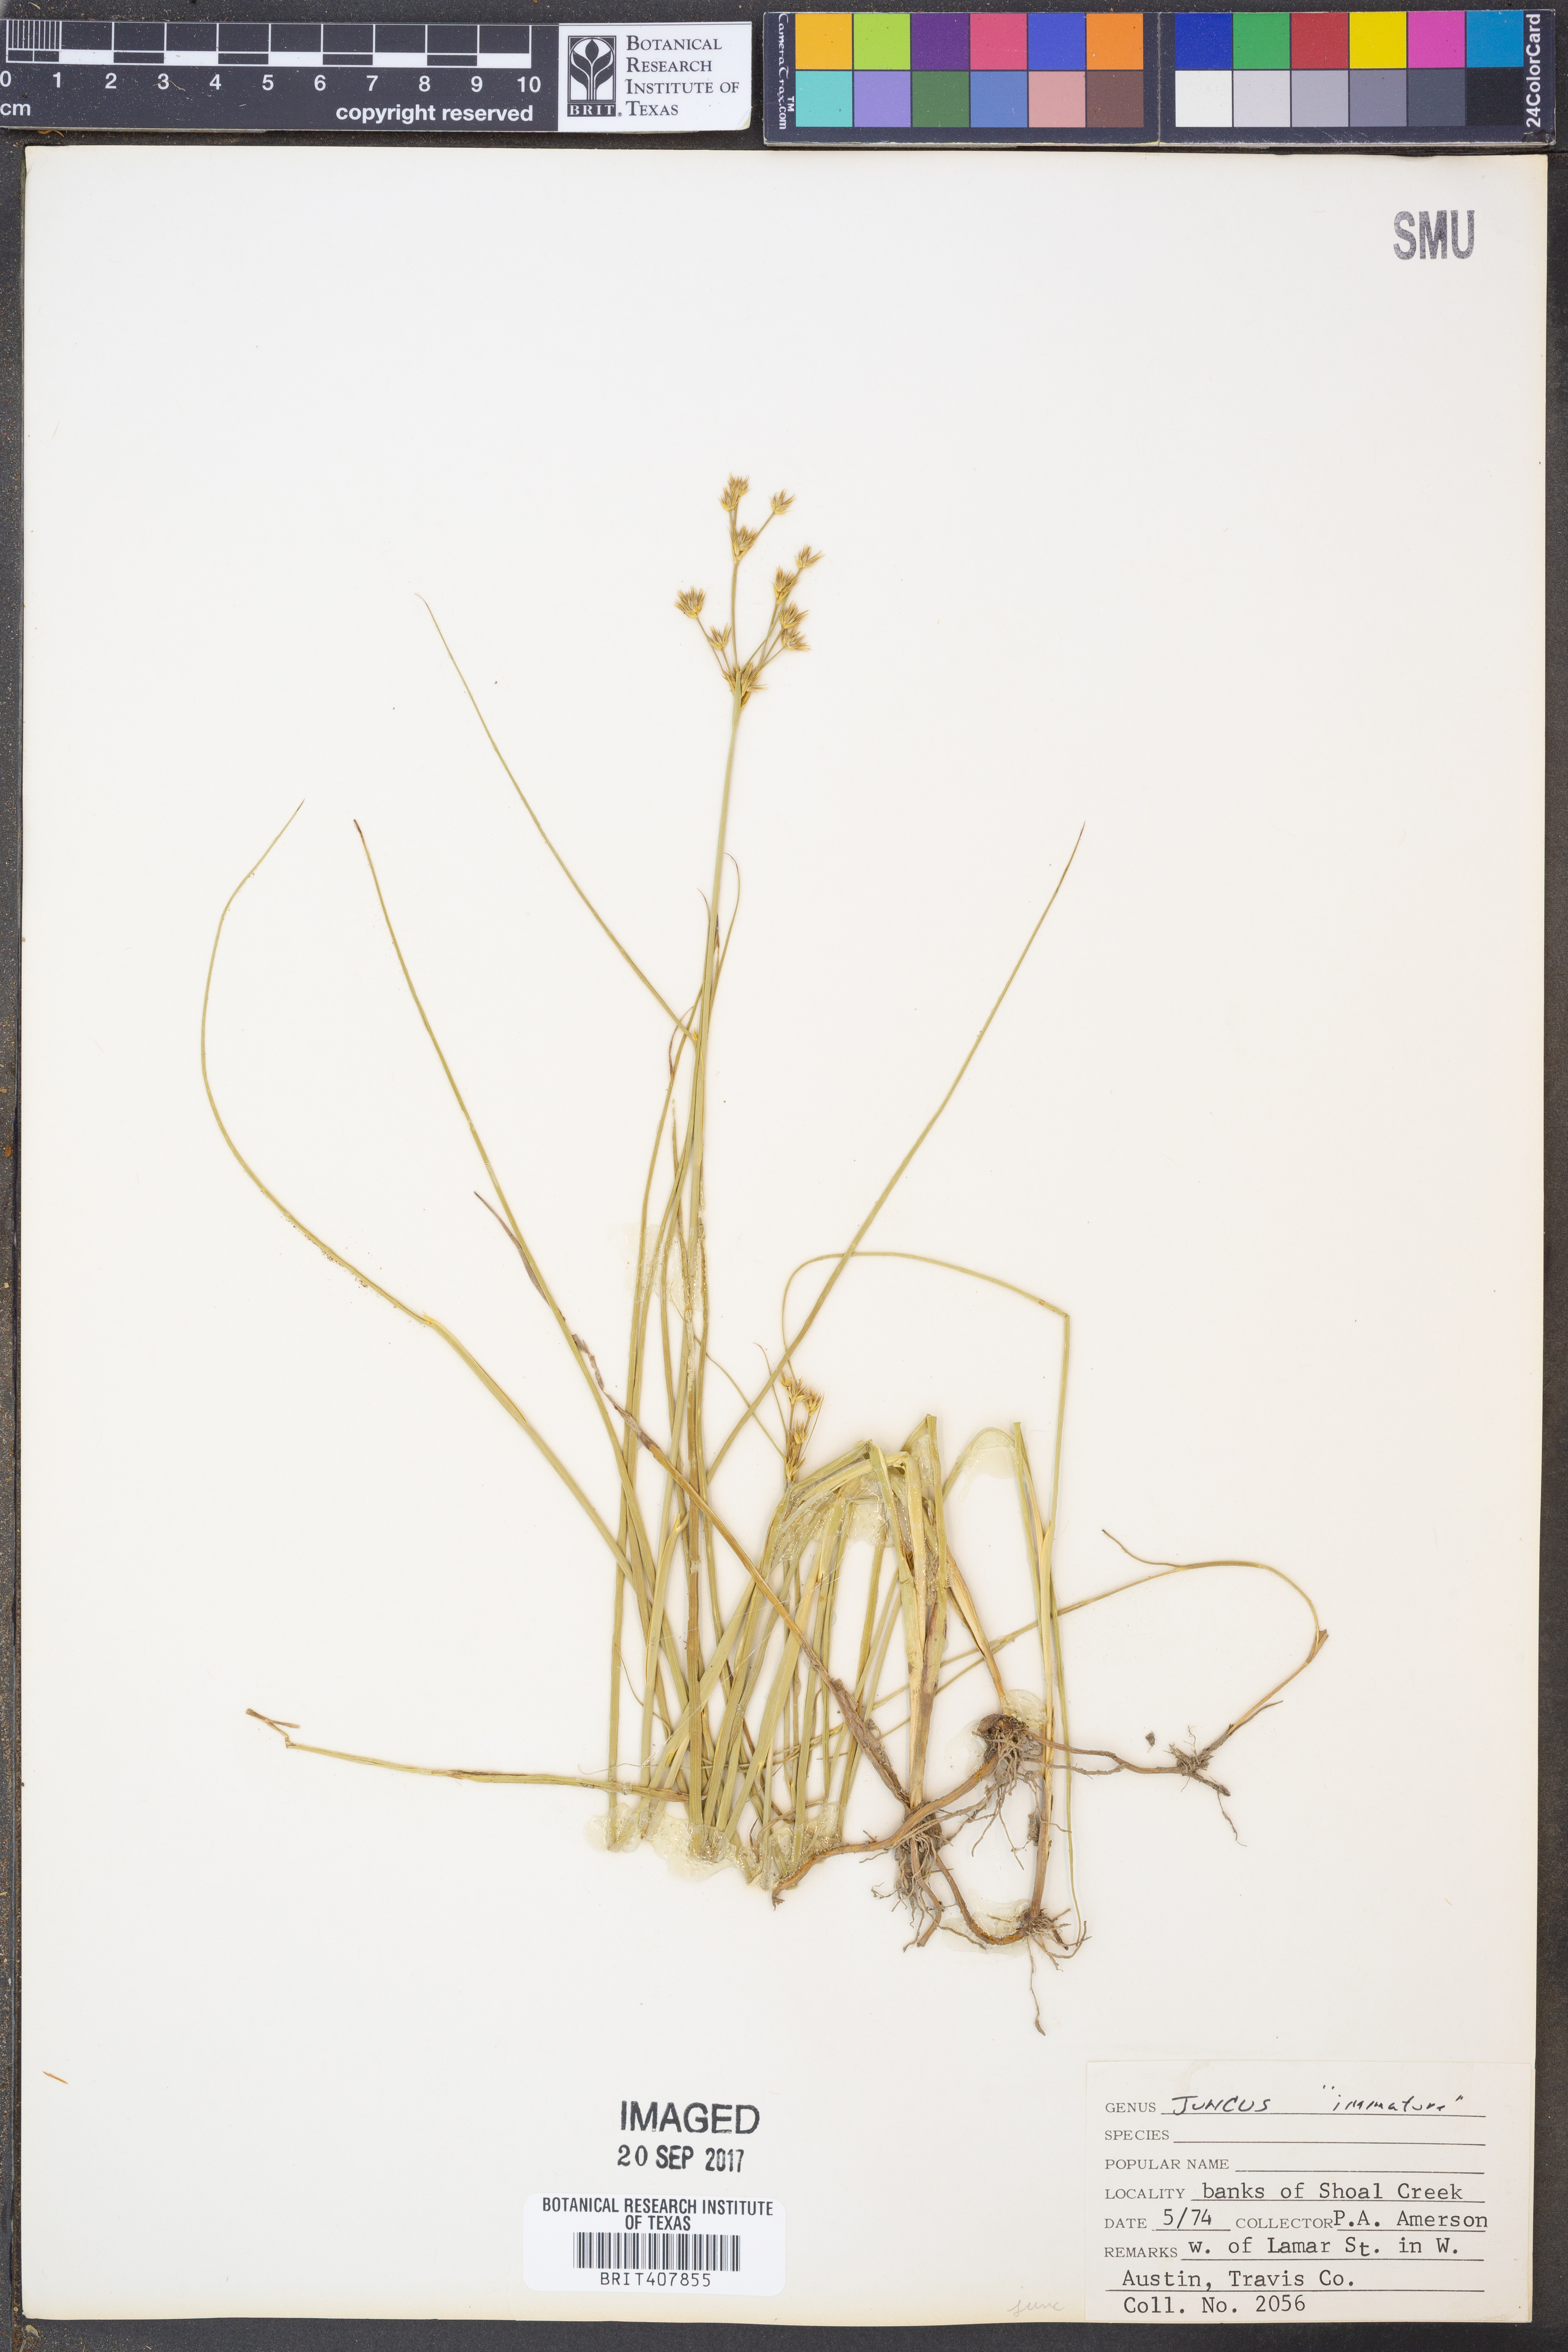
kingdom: Plantae
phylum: Tracheophyta
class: Liliopsida
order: Poales
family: Juncaceae
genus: Juncus
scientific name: Juncus
